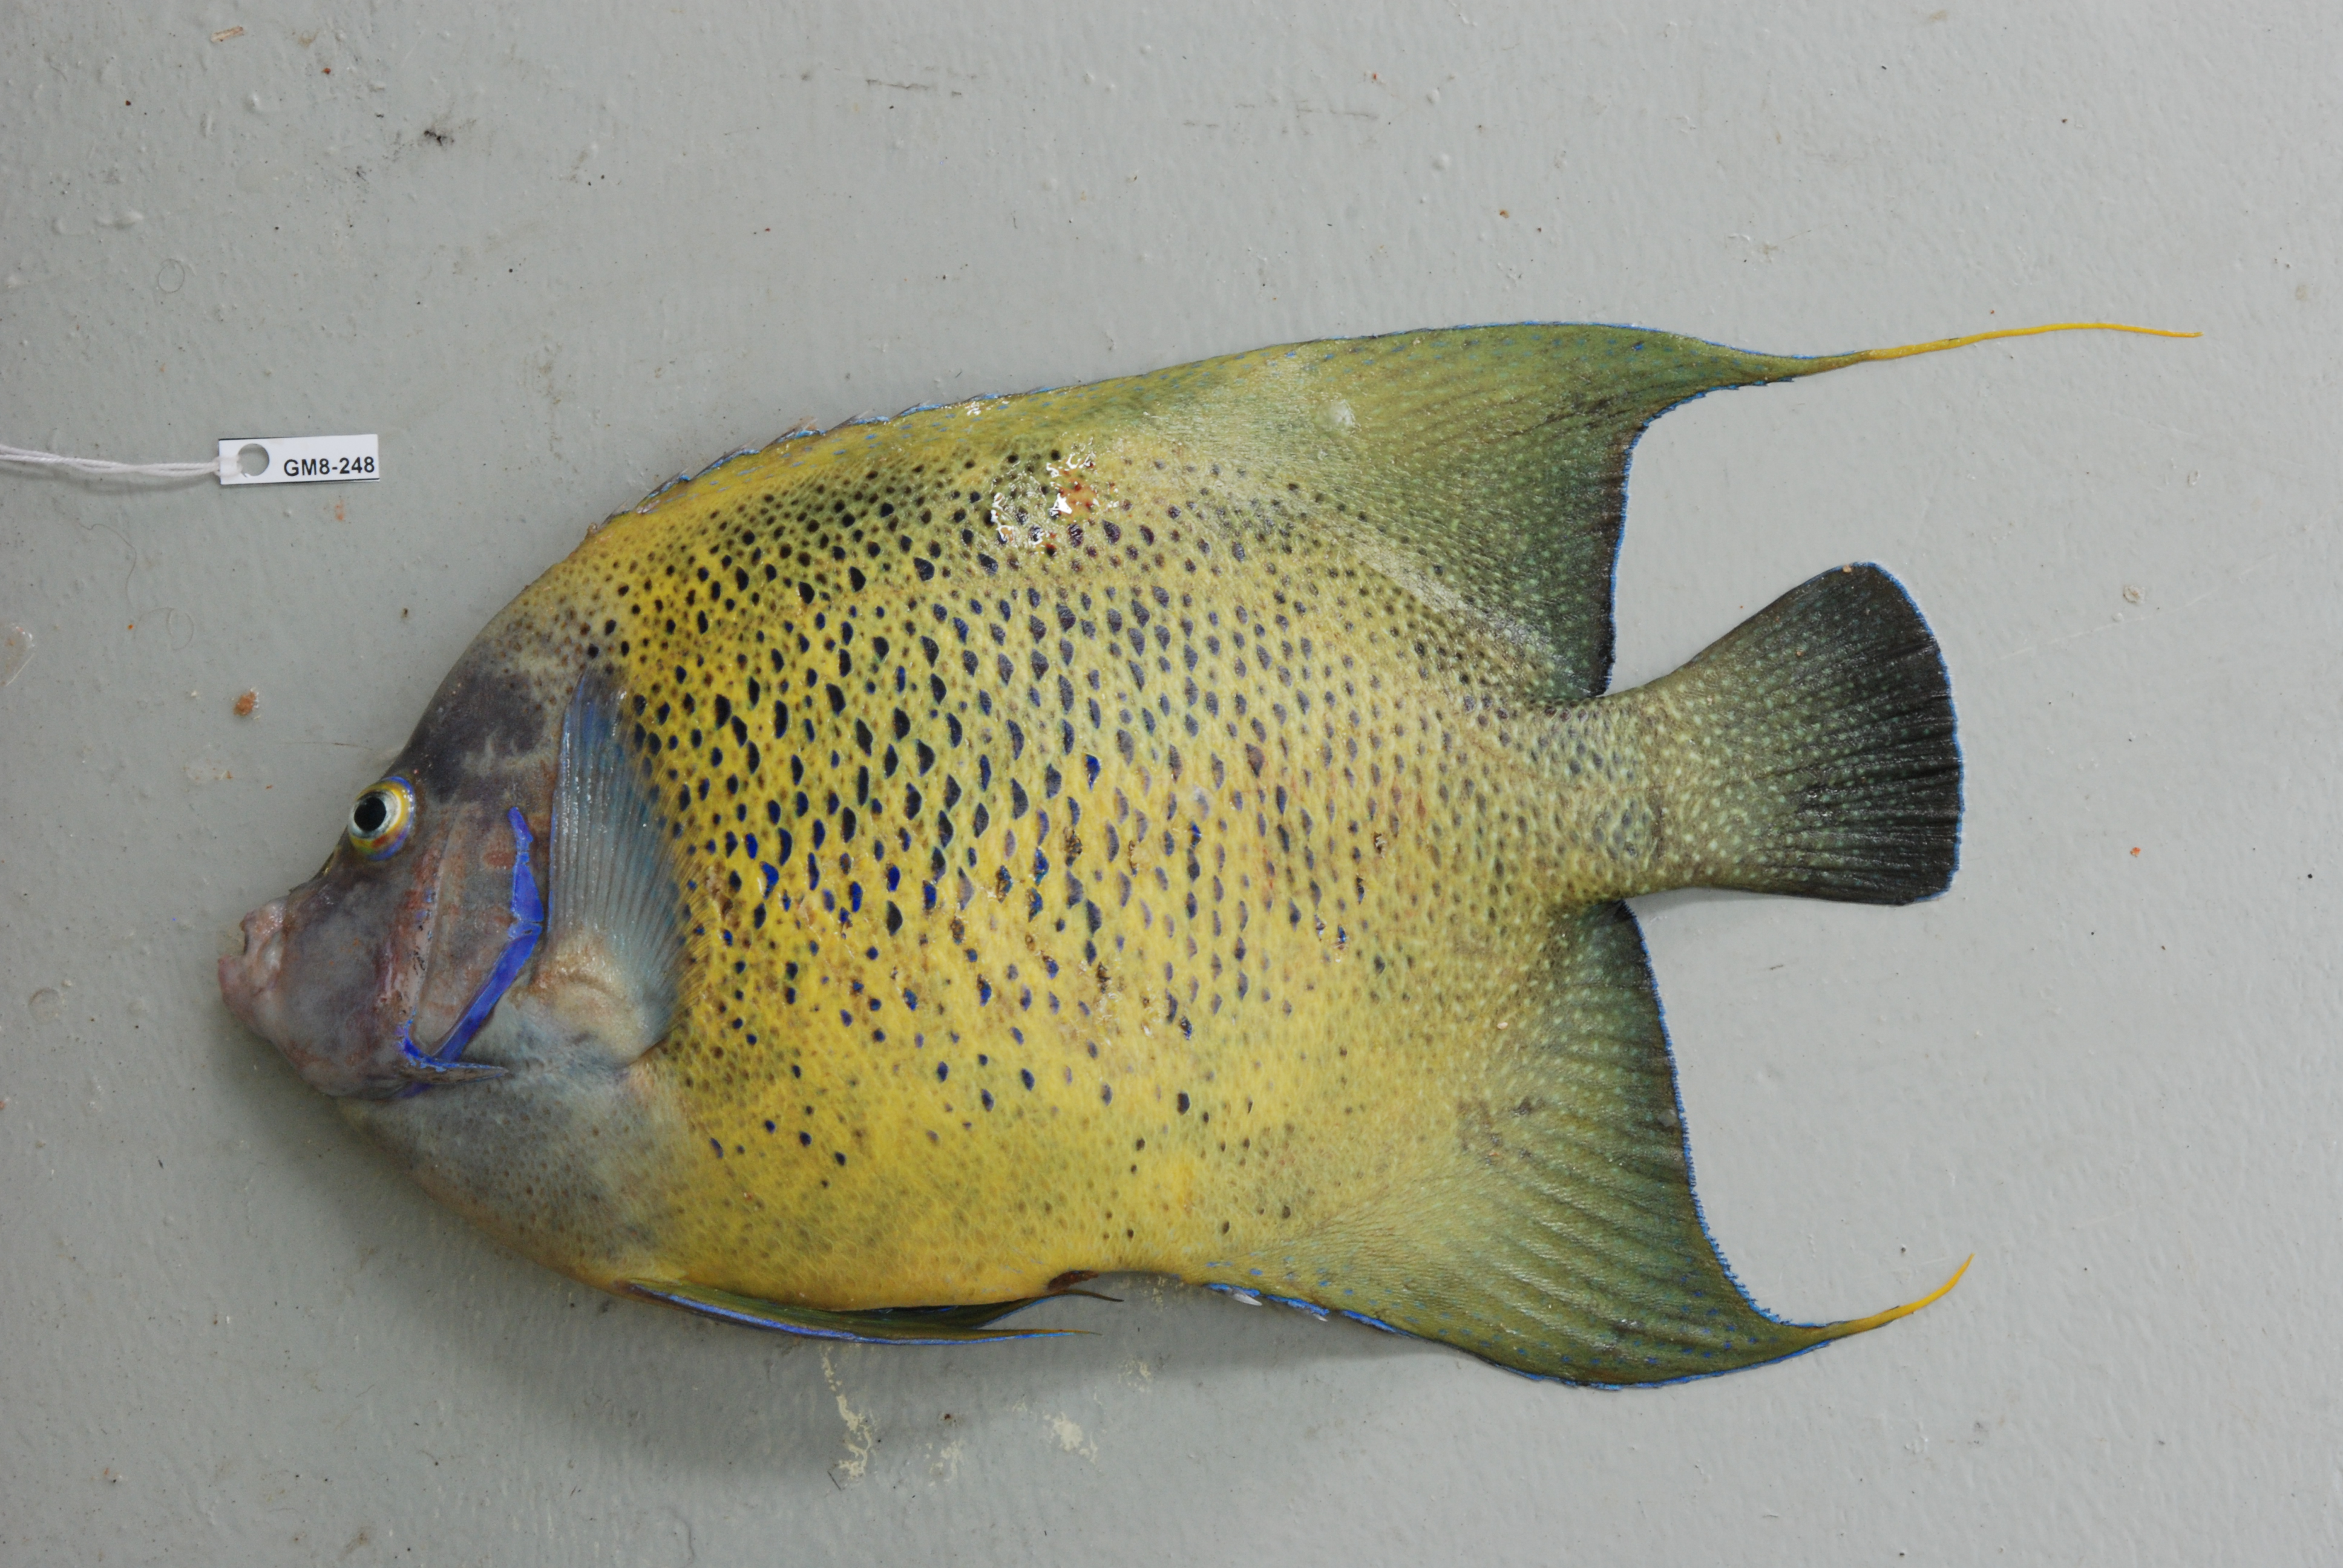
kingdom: Animalia
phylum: Chordata
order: Perciformes
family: Pomacanthidae
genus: Pomacanthus
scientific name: Pomacanthus semicirculatus
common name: Semicircle angelfish
